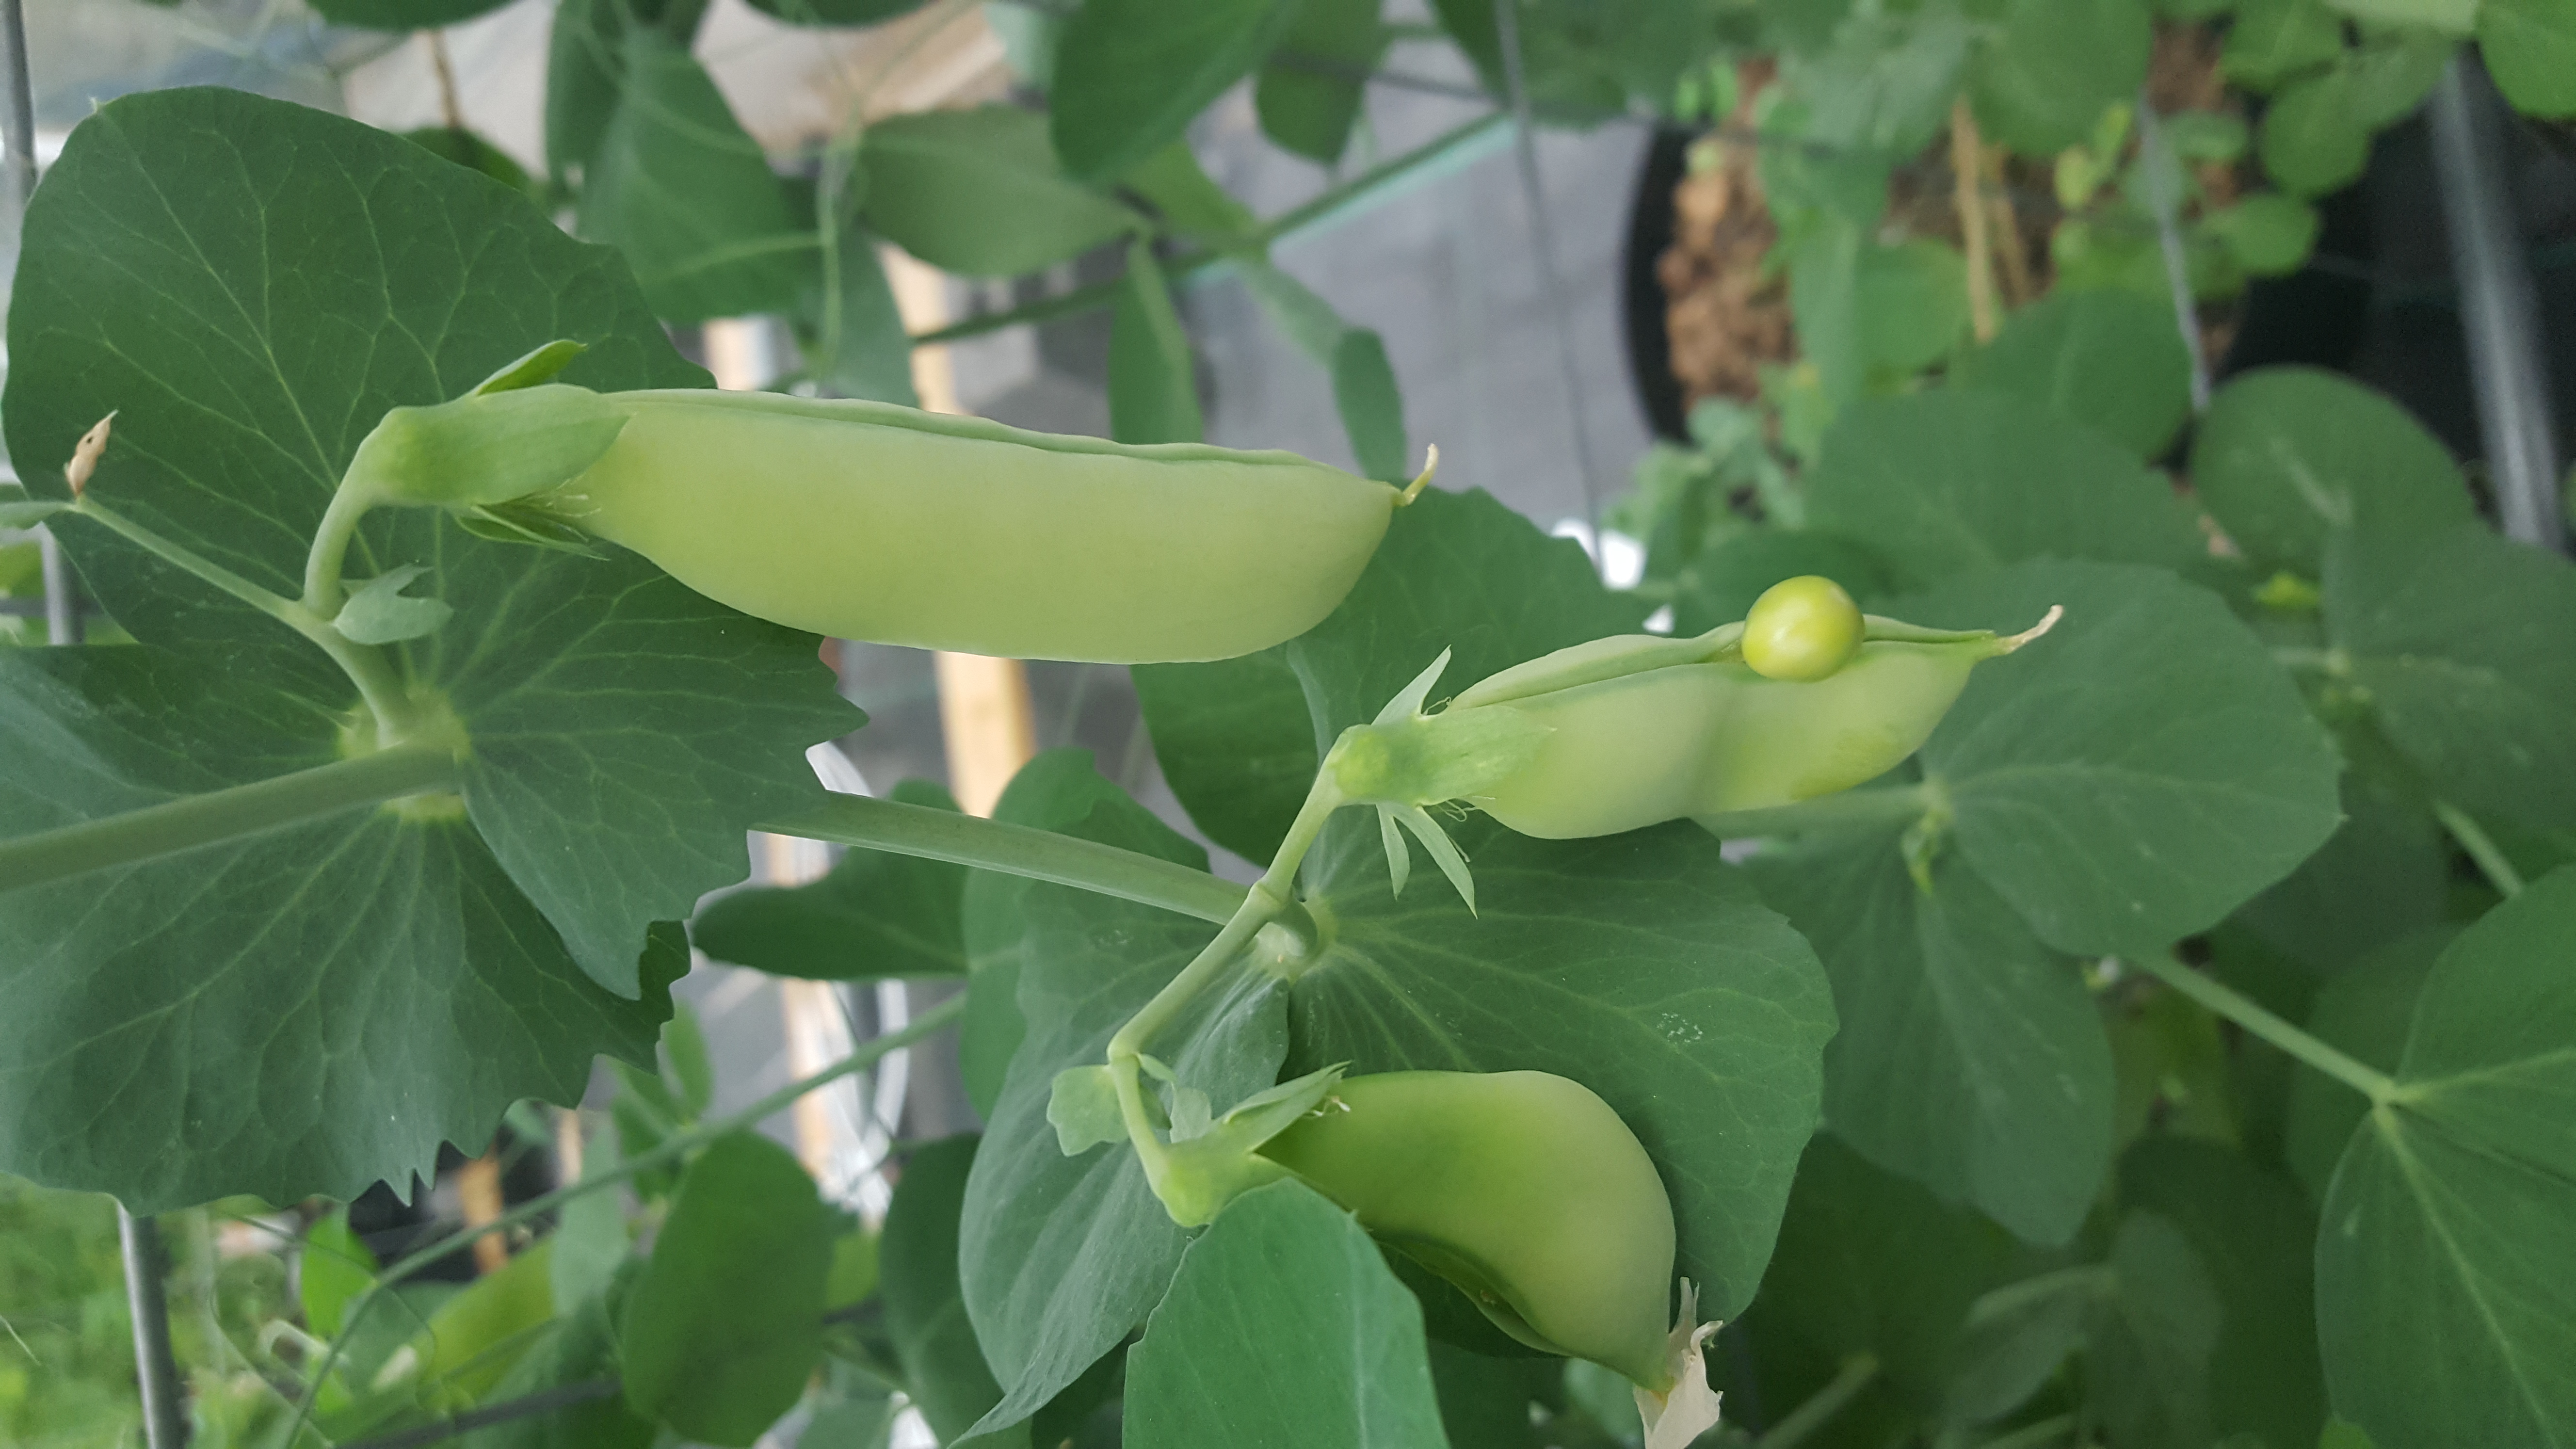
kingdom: Plantae
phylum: Tracheophyta
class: Magnoliopsida
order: Fabales
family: Fabaceae
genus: Lathyrus
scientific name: Lathyrus oleraceus
